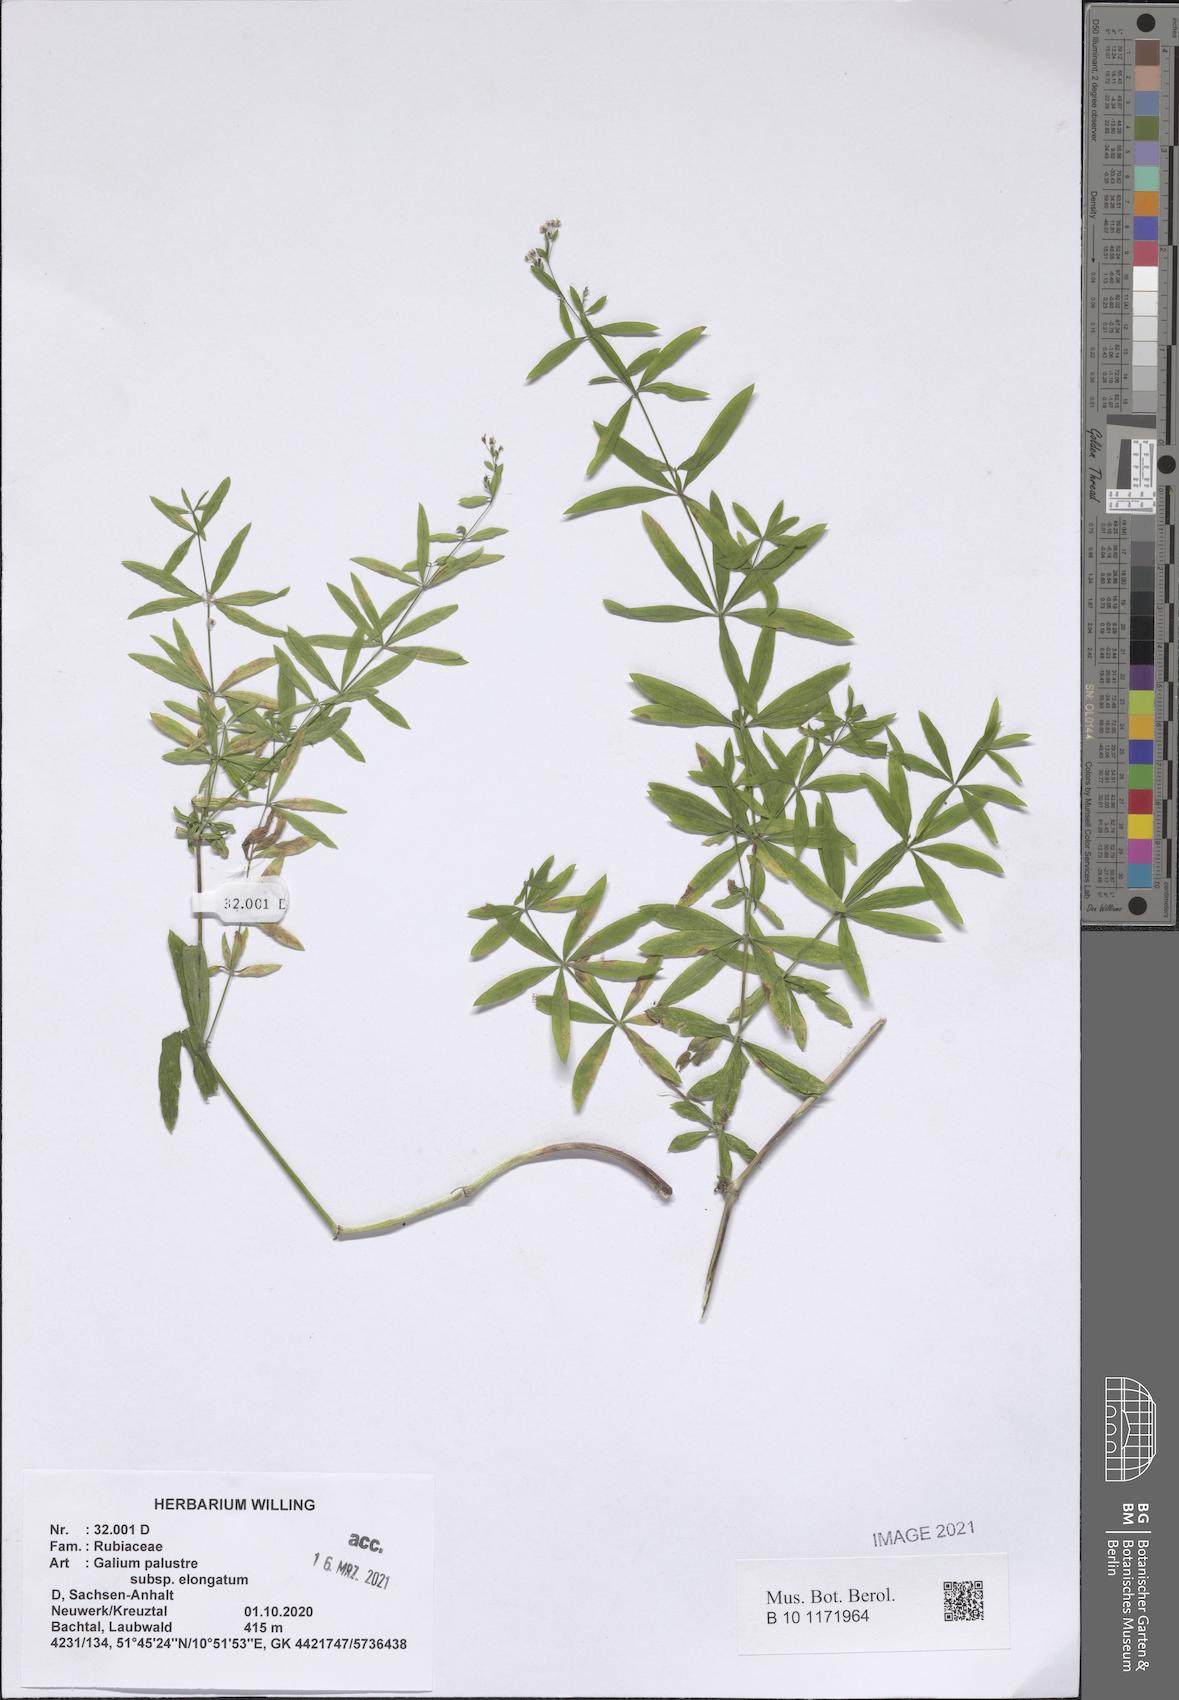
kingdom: Plantae
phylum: Tracheophyta
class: Magnoliopsida
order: Gentianales
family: Rubiaceae
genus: Galium
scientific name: Galium elongatum
